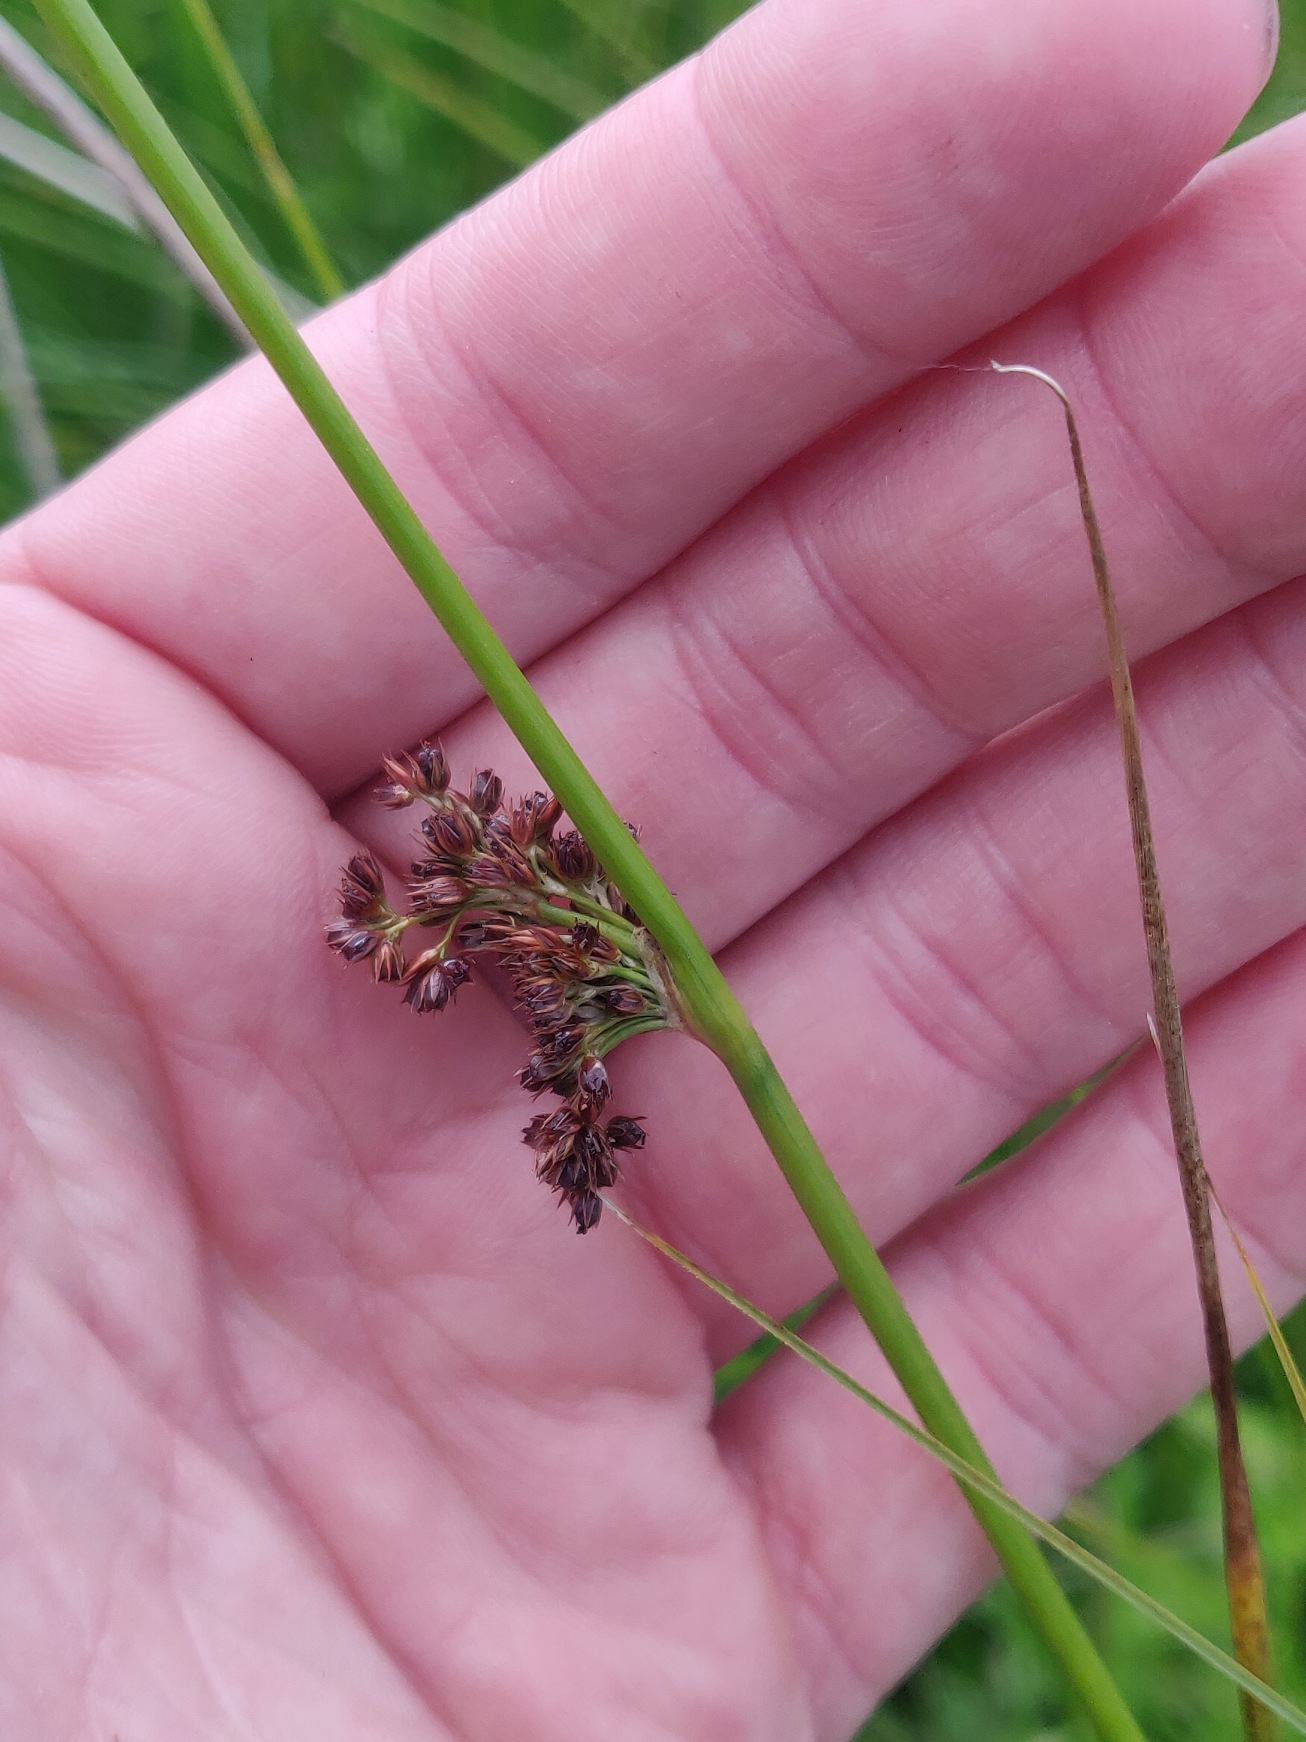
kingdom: Plantae
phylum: Tracheophyta
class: Liliopsida
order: Poales
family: Juncaceae
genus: Juncus
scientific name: Juncus effusus
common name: Lyse-siv
